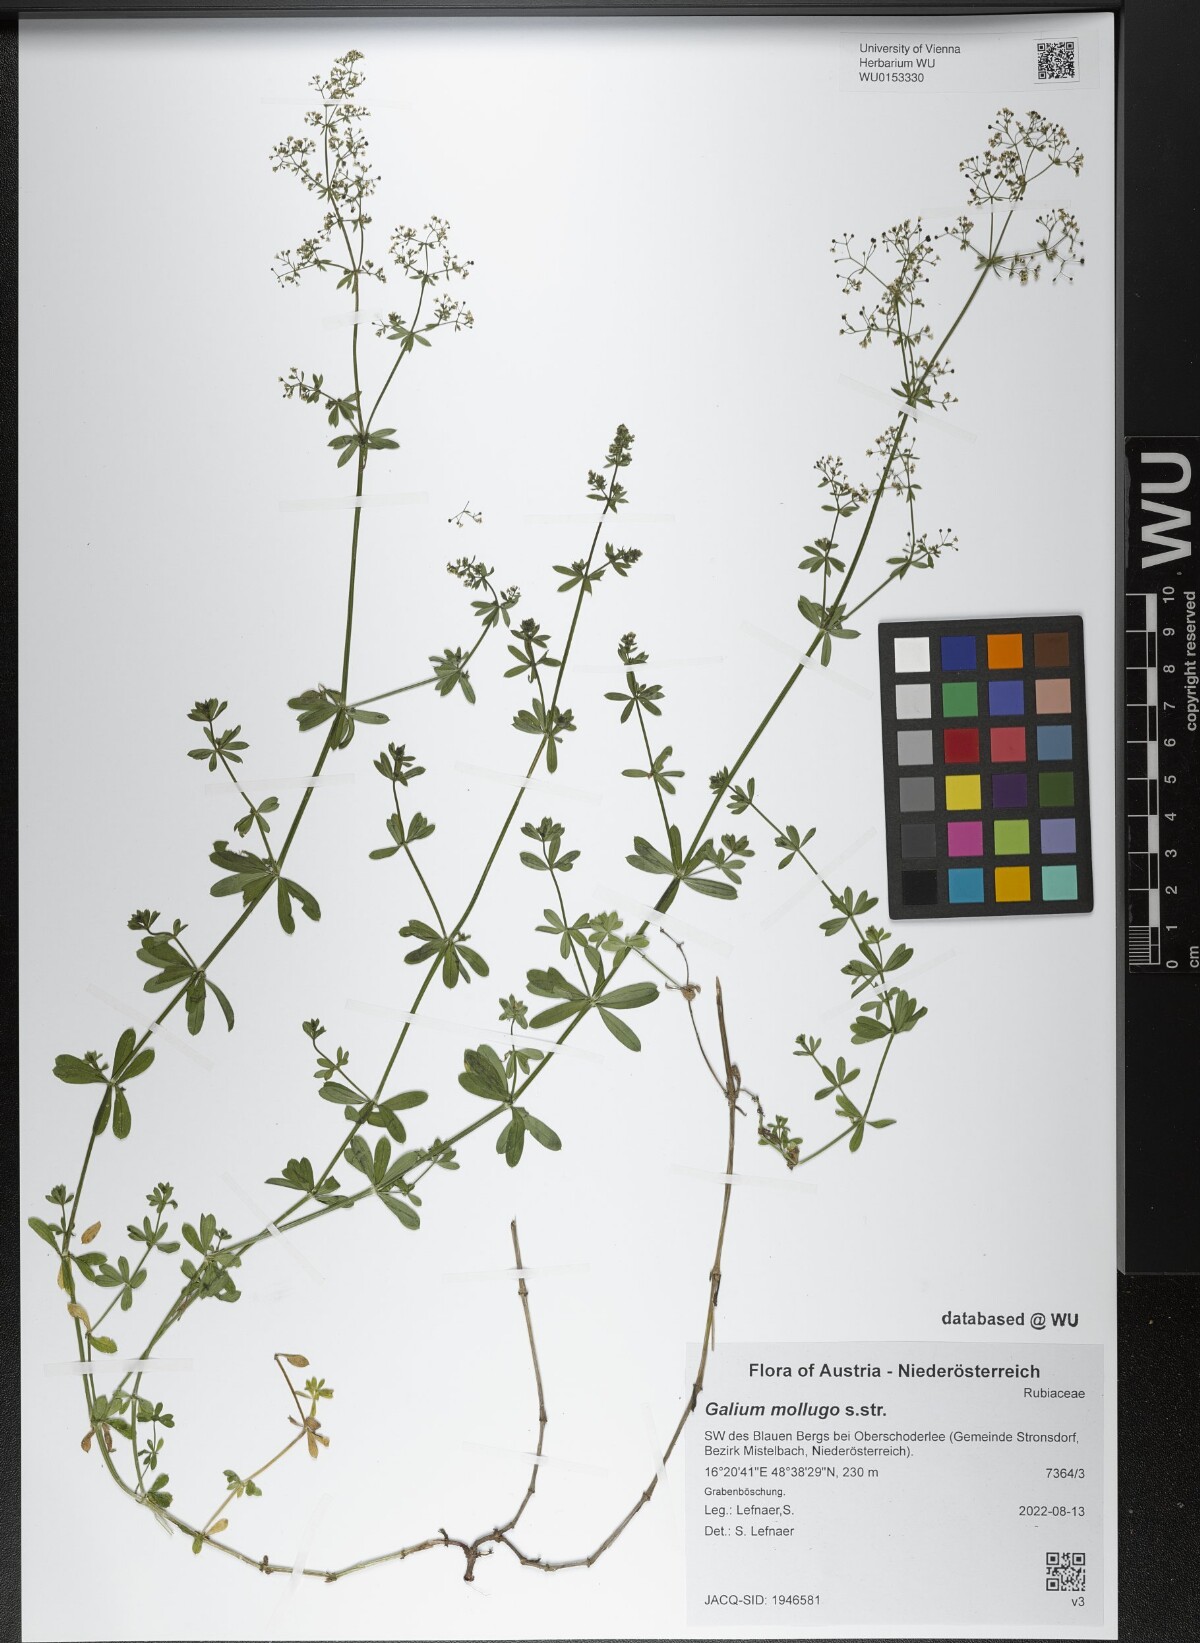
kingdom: Plantae
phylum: Tracheophyta
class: Magnoliopsida
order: Gentianales
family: Rubiaceae
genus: Galium
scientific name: Galium mollugo
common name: Hedge bedstraw
